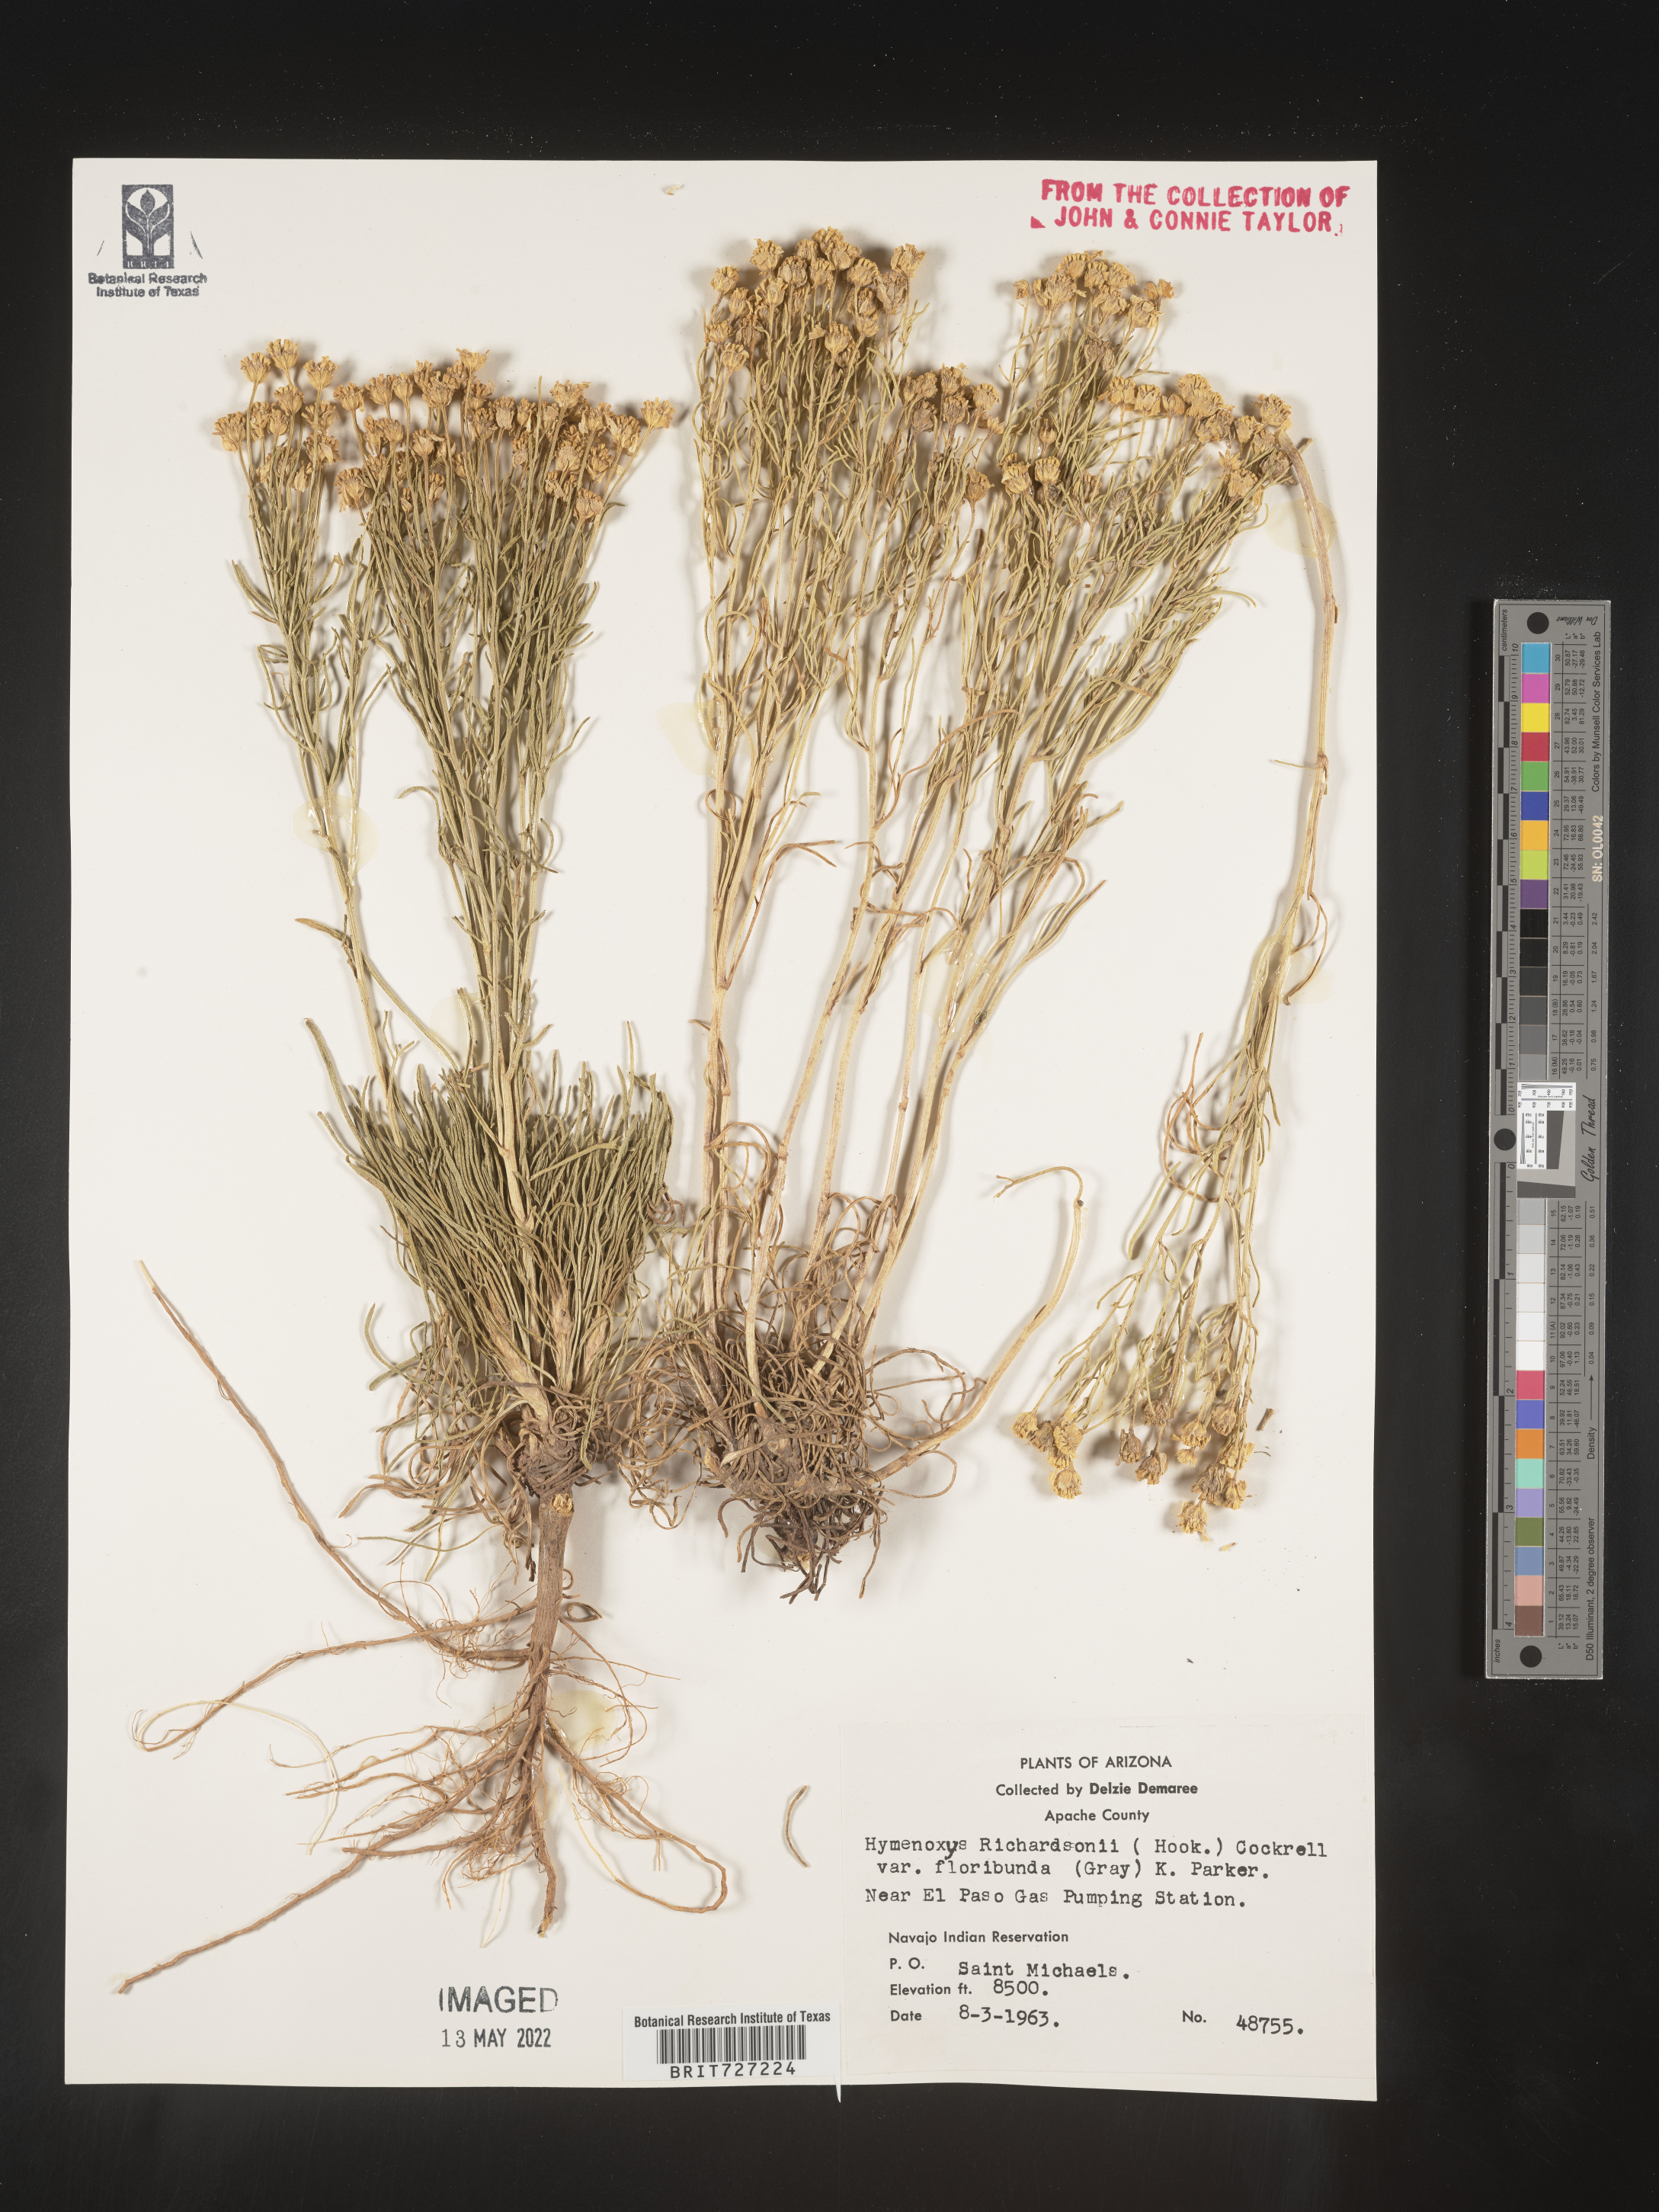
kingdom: Plantae
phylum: Tracheophyta
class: Magnoliopsida
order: Asterales
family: Asteraceae
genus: Hymenoxys
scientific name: Hymenoxys richardsonii
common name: Pingue rubberweed
